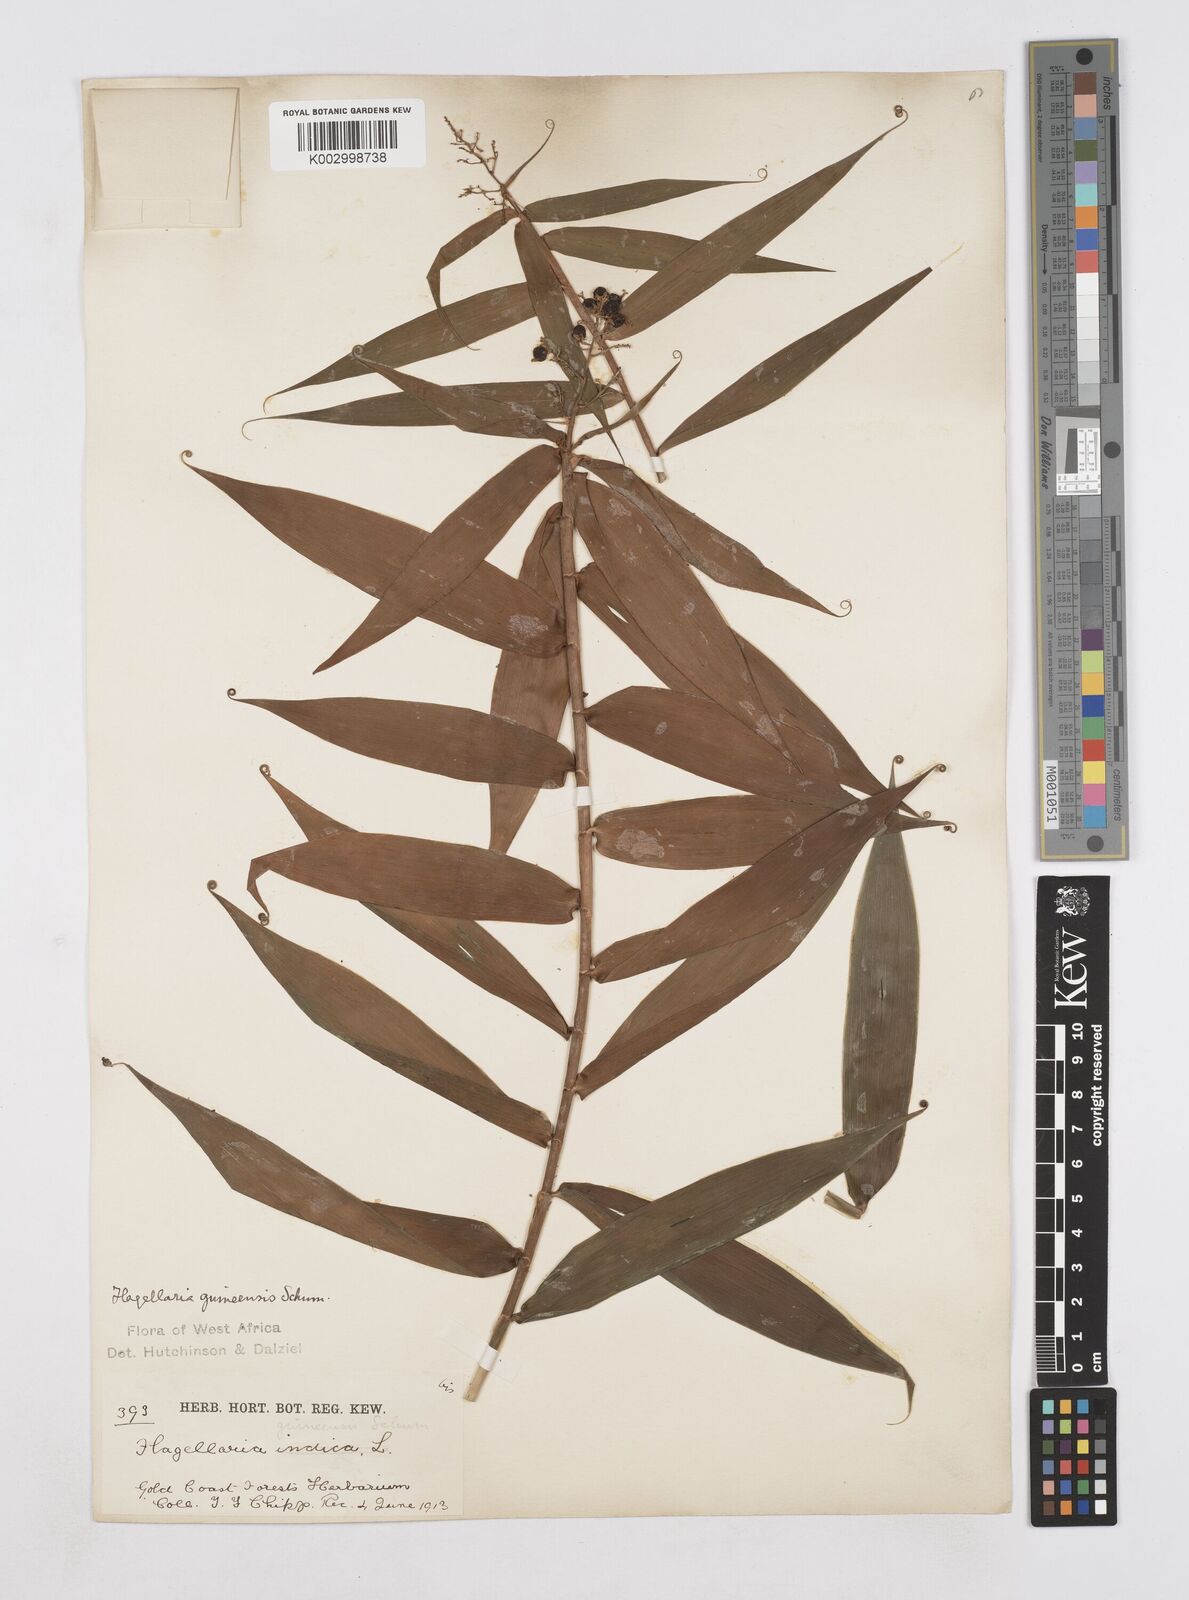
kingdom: Plantae
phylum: Tracheophyta
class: Liliopsida
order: Poales
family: Flagellariaceae
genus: Flagellaria
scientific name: Flagellaria guineensis
